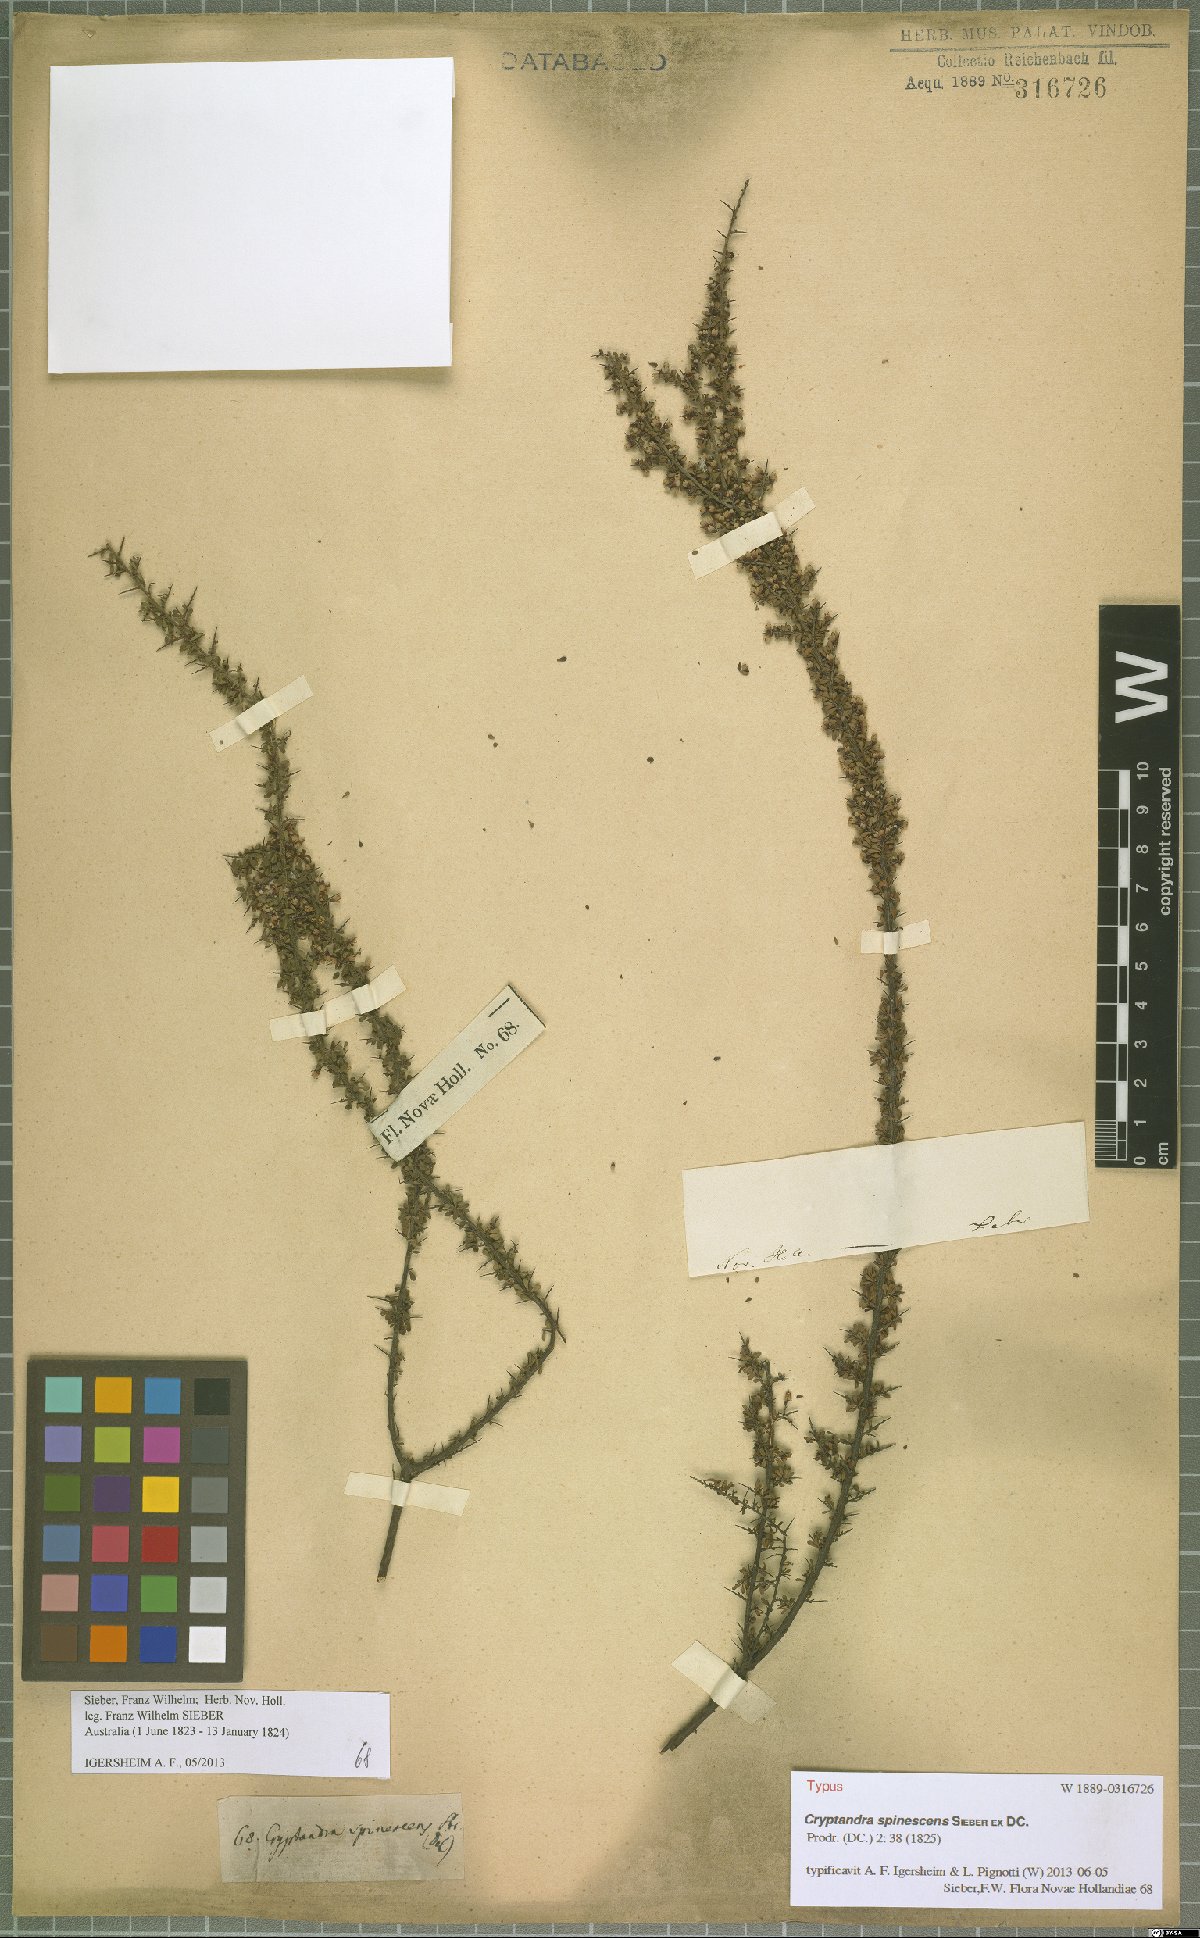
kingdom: Plantae
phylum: Tracheophyta
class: Magnoliopsida
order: Rosales
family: Rhamnaceae
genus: Cryptandra
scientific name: Cryptandra spinescens
